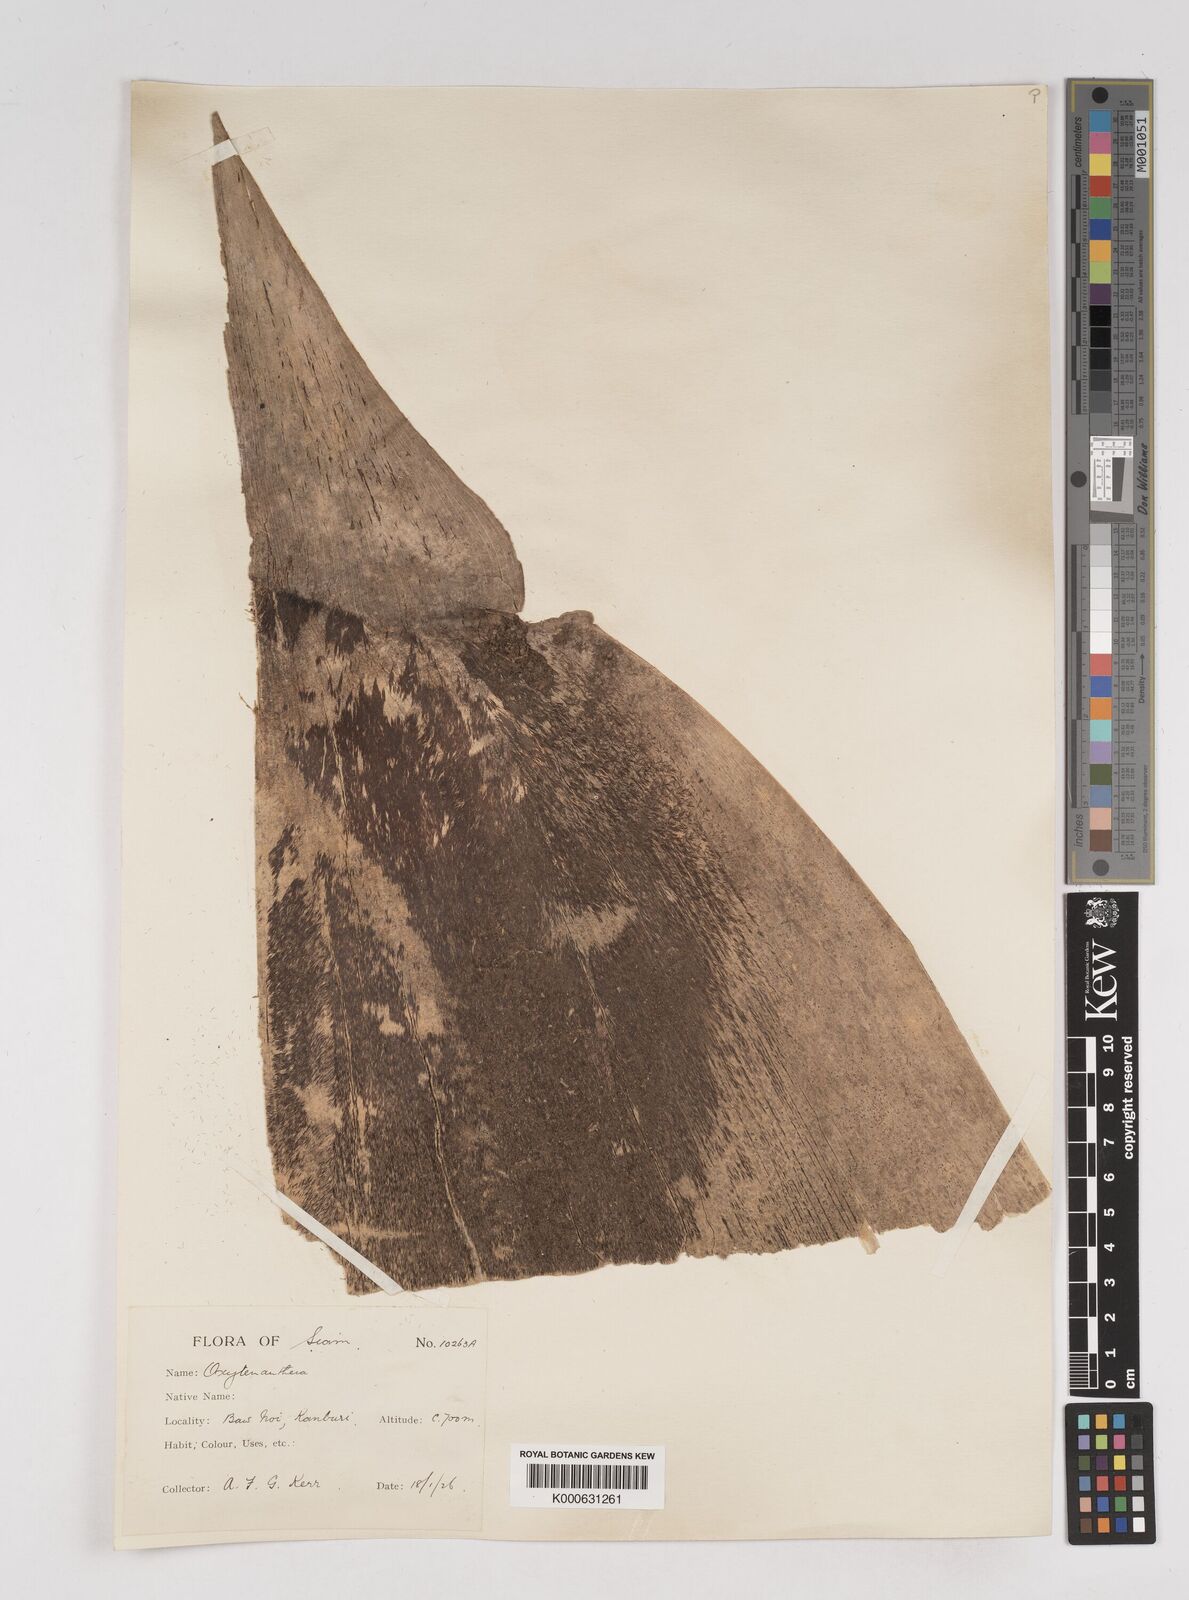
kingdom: Plantae
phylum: Tracheophyta
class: Liliopsida
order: Poales
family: Poaceae
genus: Gigantochloa
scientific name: Gigantochloa
